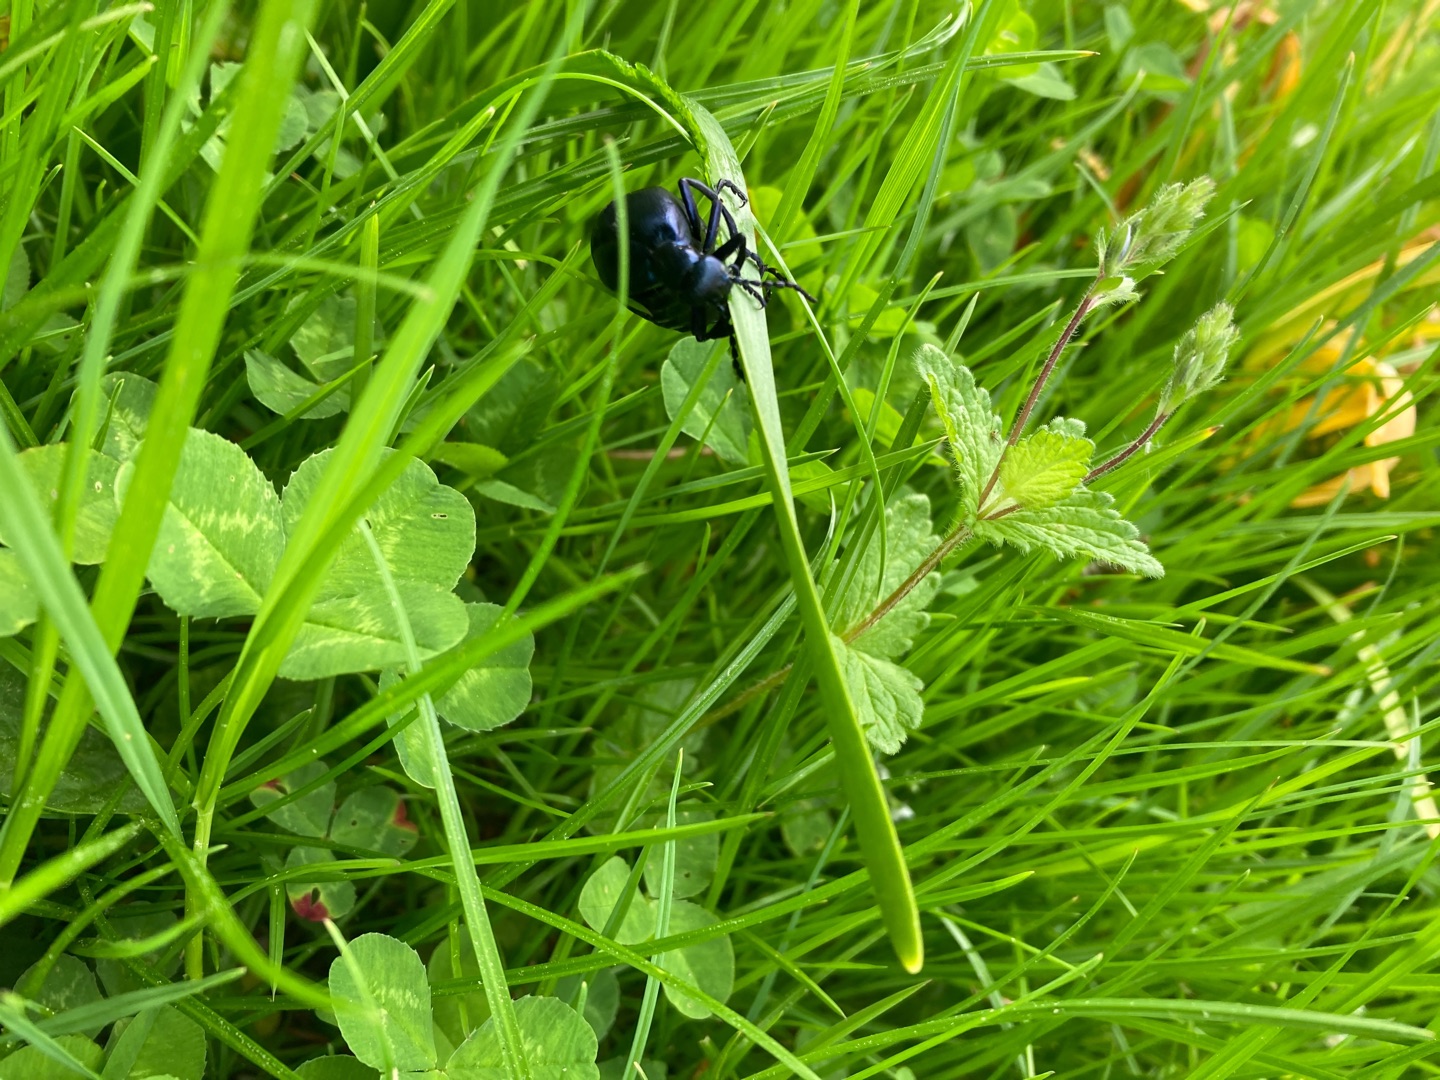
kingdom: Animalia
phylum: Arthropoda
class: Insecta
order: Coleoptera
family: Meloidae
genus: Meloe
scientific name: Meloe violaceus
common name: Blå oliebille
